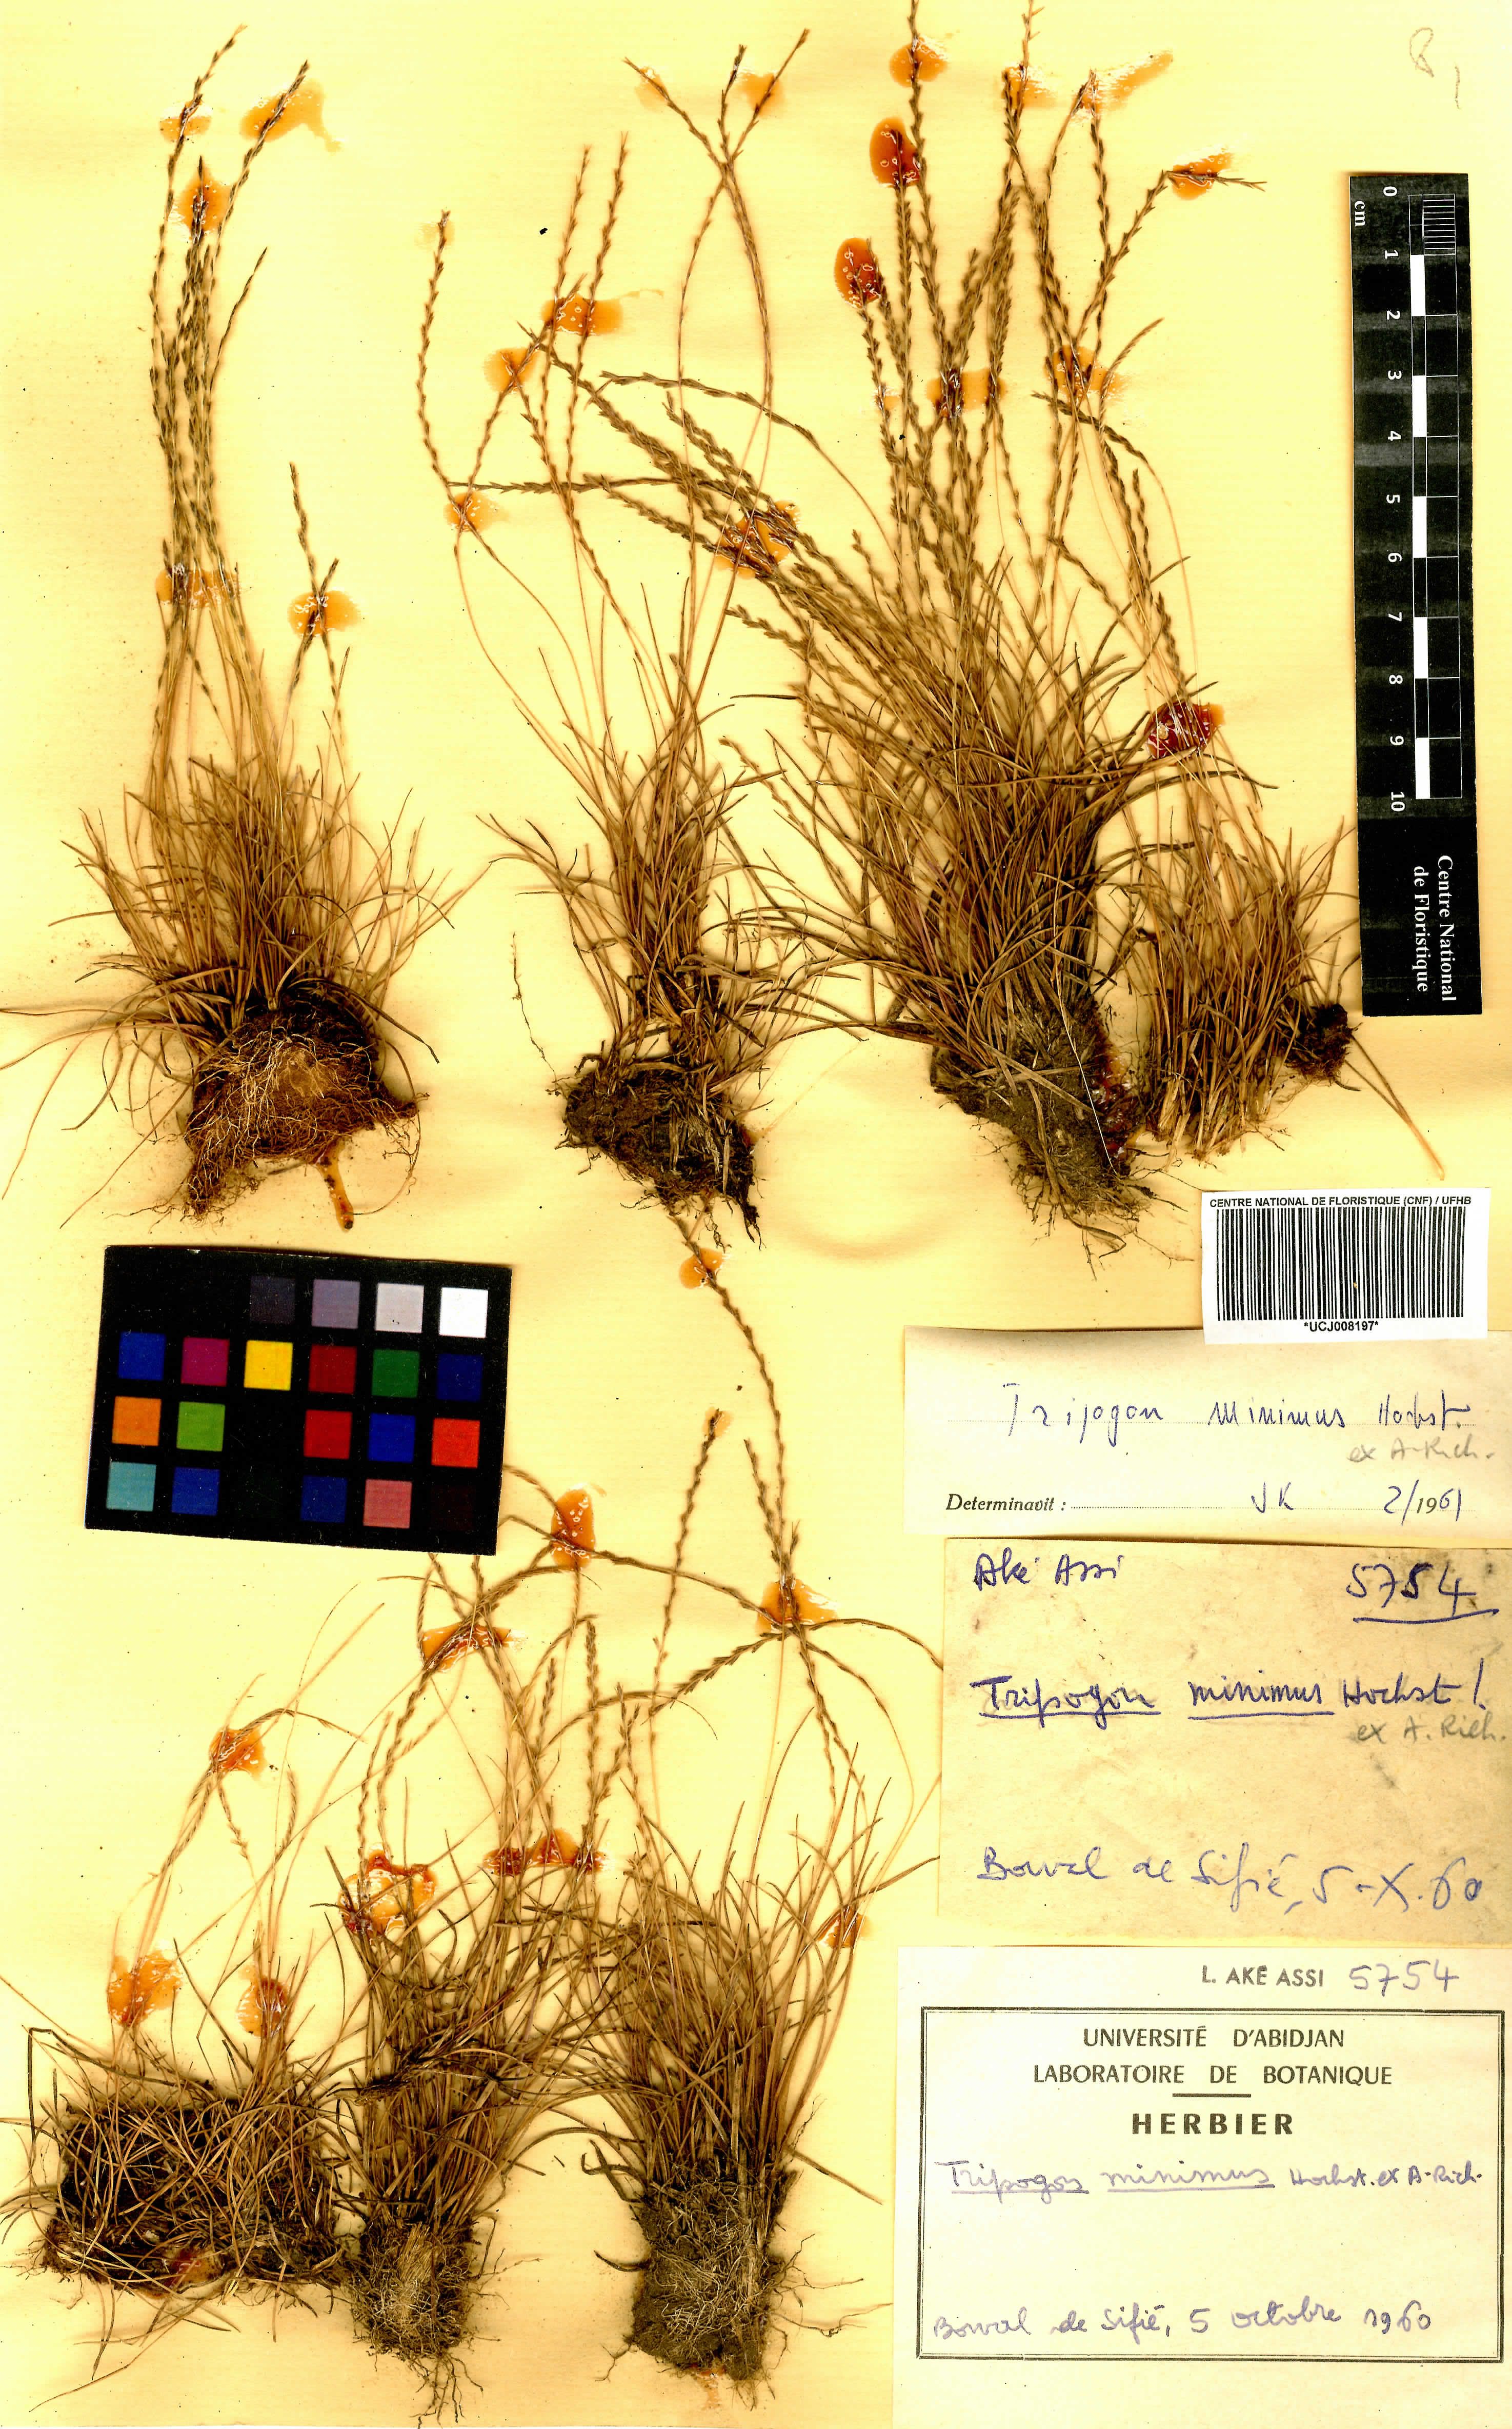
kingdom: Plantae
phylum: Tracheophyta
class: Liliopsida
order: Poales
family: Poaceae
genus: Trachypogon
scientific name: Trachypogon spicatus
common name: Crinkle-awn
